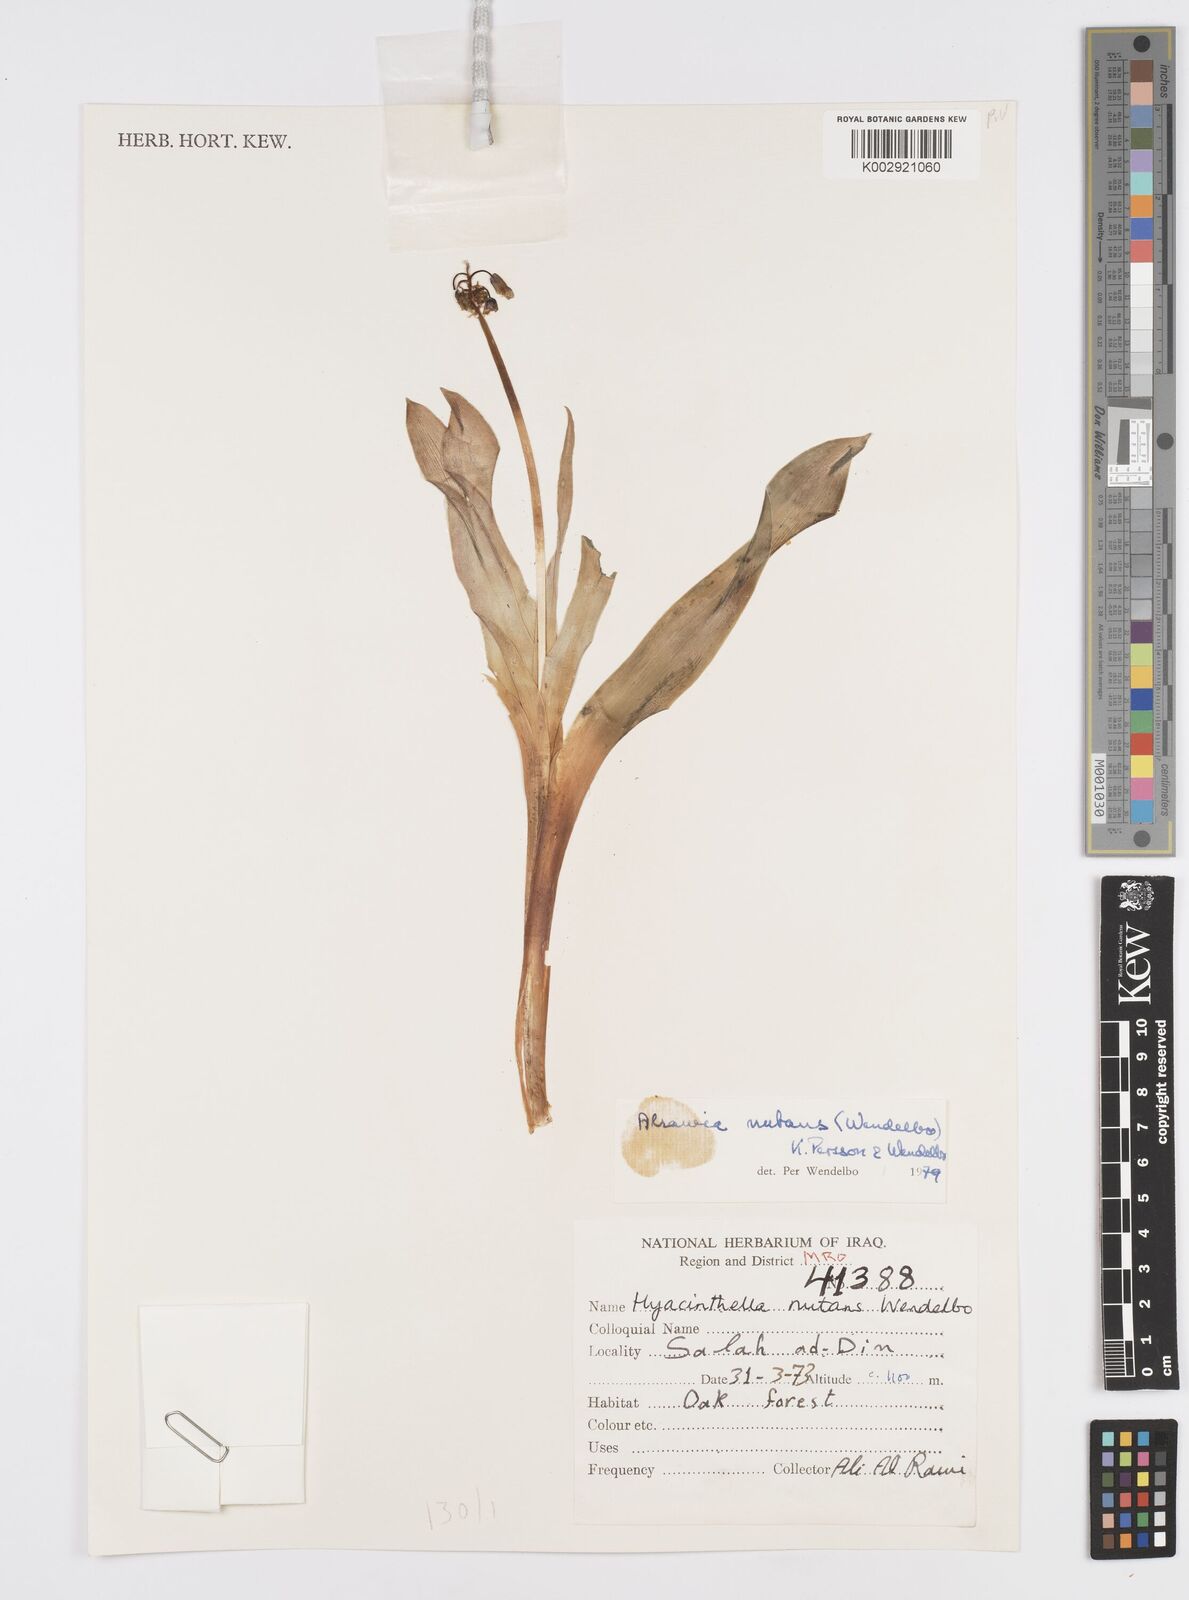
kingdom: Plantae
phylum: Tracheophyta
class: Liliopsida
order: Asparagales
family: Asparagaceae
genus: Alrawia
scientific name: Alrawia nutans
